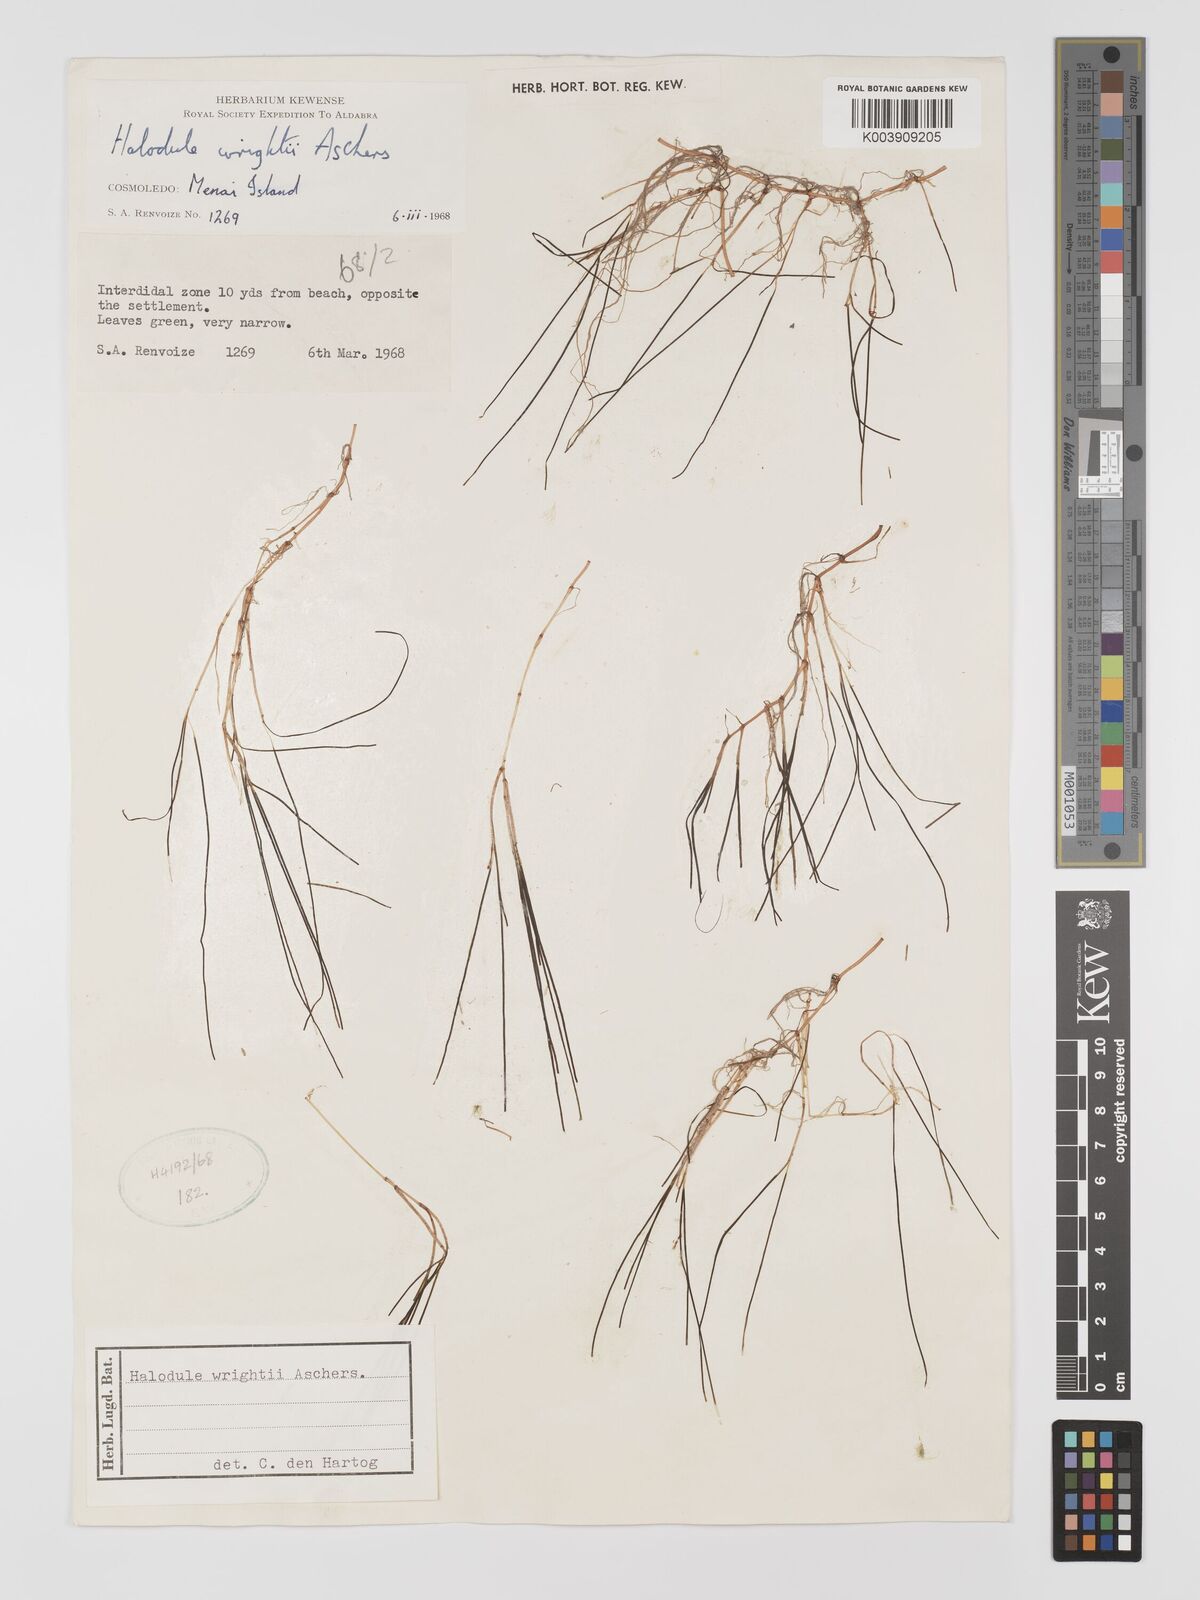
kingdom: Plantae
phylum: Tracheophyta
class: Liliopsida
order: Alismatales
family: Cymodoceaceae
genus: Halodule
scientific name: Halodule wrightii
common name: Shoalgrass
